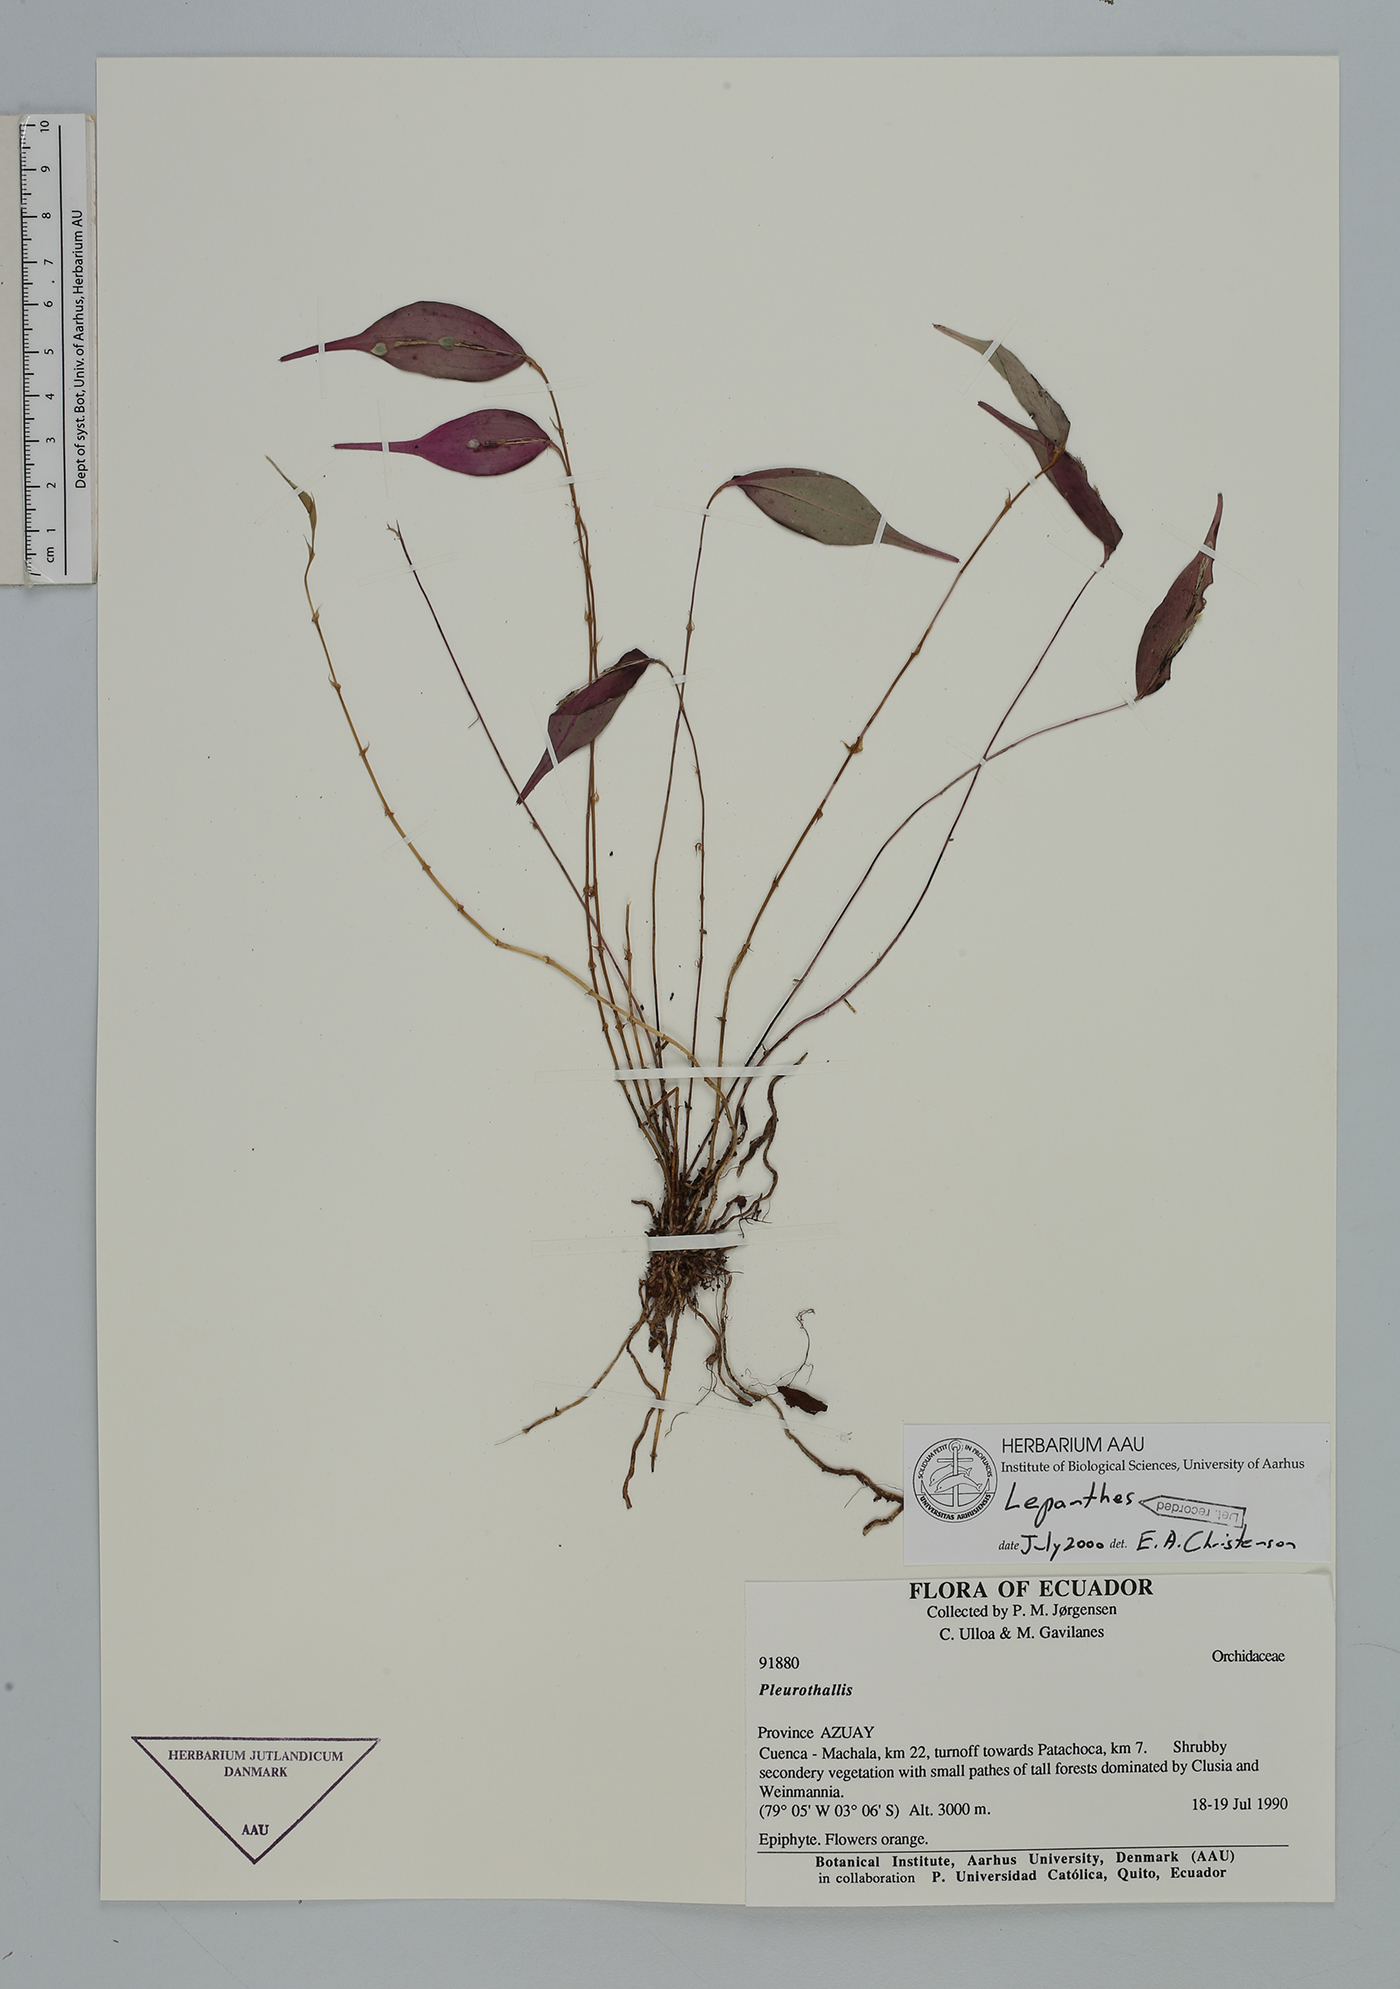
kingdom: Plantae
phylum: Tracheophyta
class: Liliopsida
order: Asparagales
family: Orchidaceae
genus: Lepanthes
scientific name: Lepanthes
